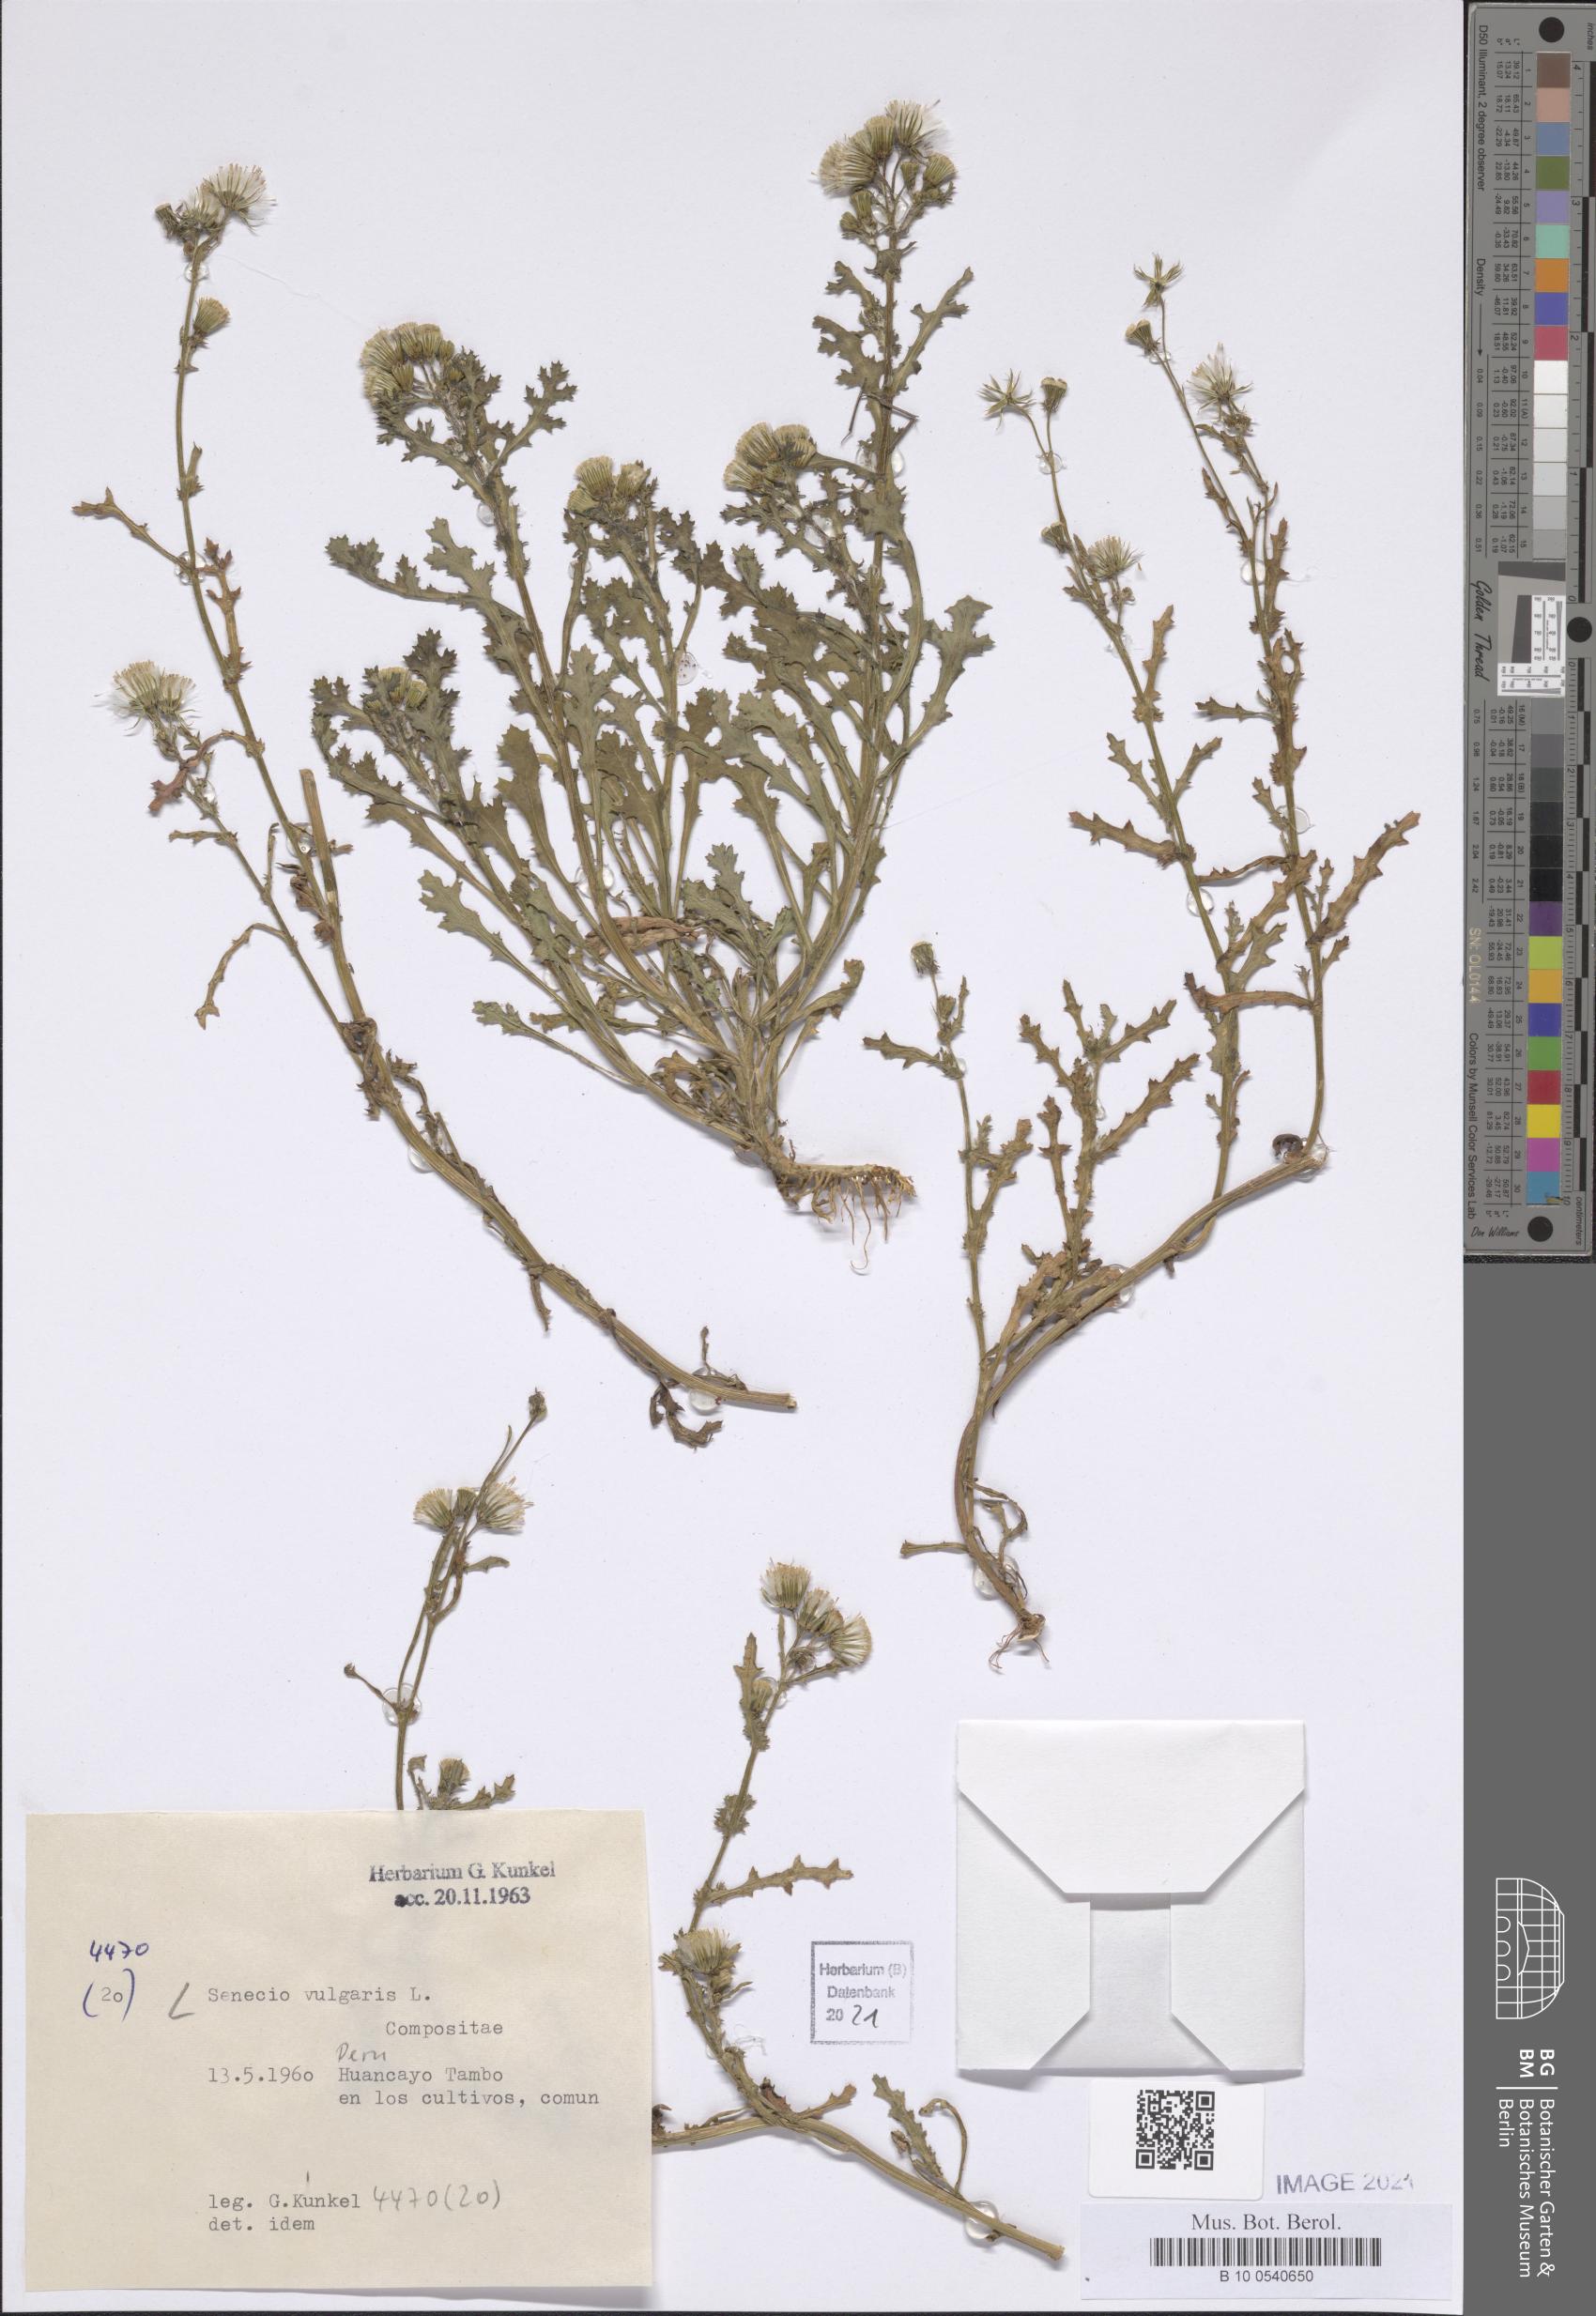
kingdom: Plantae
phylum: Tracheophyta
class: Magnoliopsida
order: Asterales
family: Asteraceae
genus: Senecio
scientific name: Senecio vulgaris
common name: Old-man-in-the-spring
